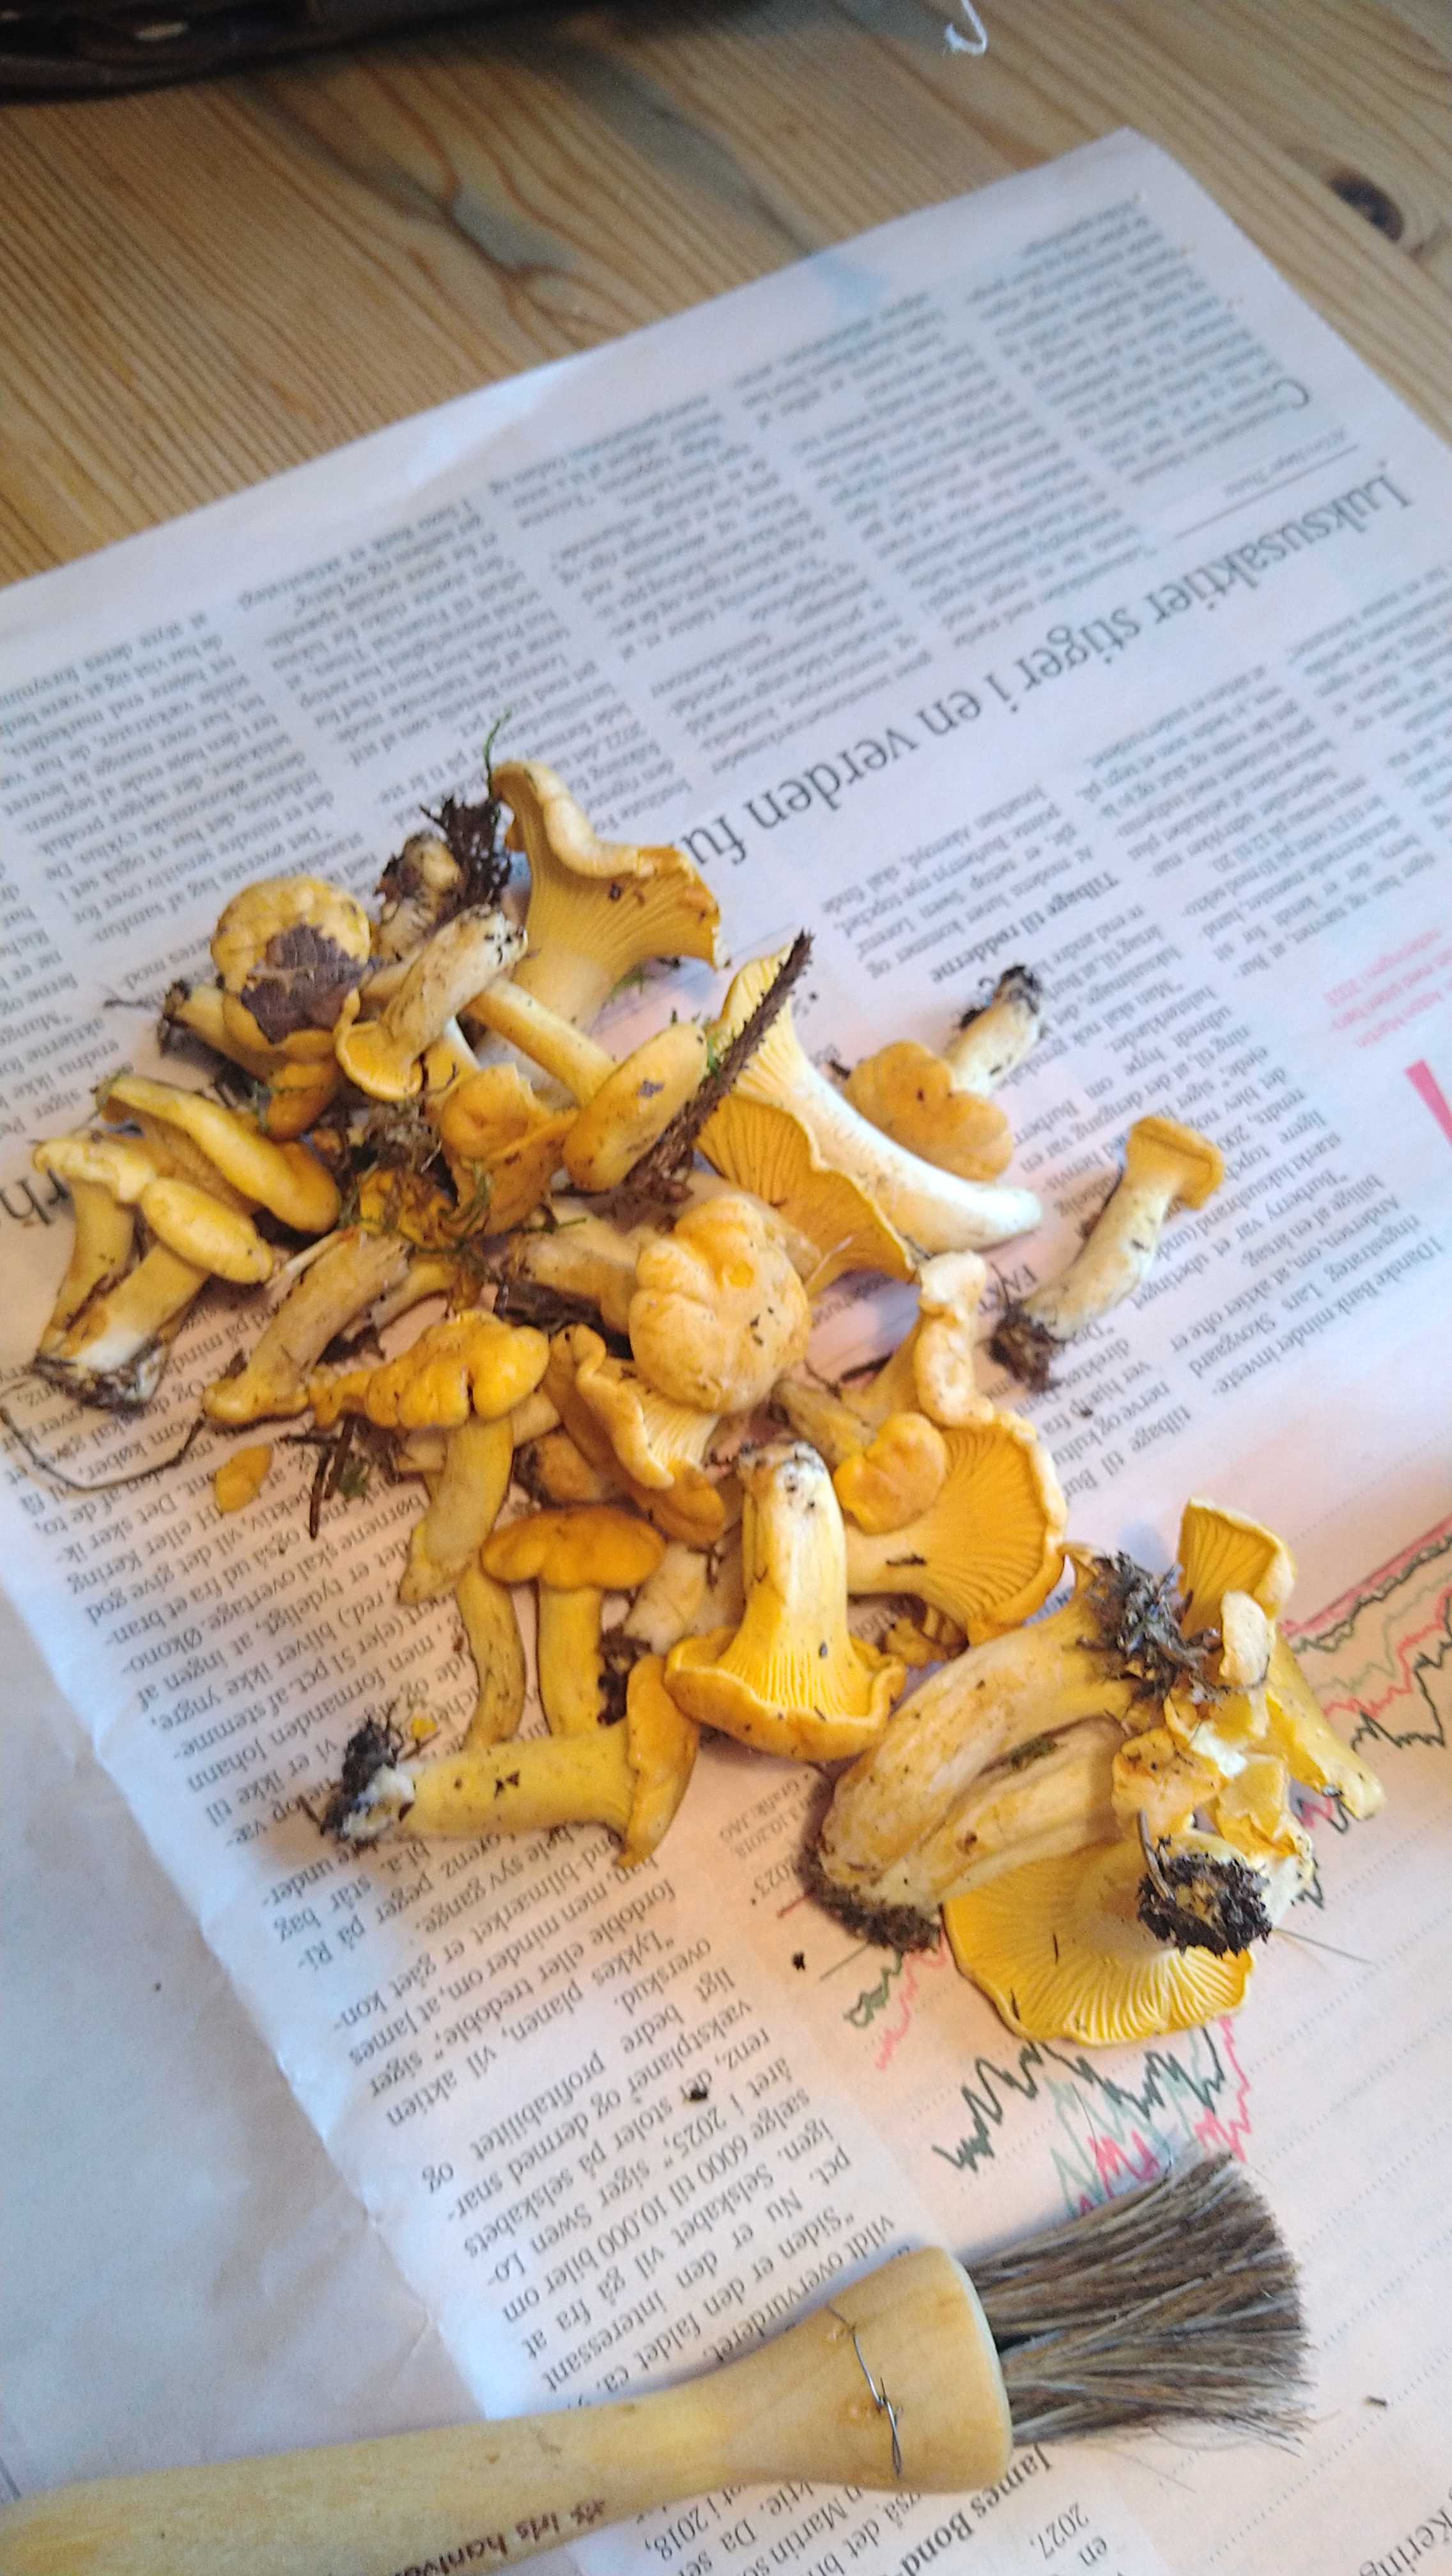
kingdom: Fungi
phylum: Basidiomycota
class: Agaricomycetes
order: Cantharellales
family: Hydnaceae
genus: Cantharellus
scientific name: Cantharellus cibarius
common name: almindelig kantarel
